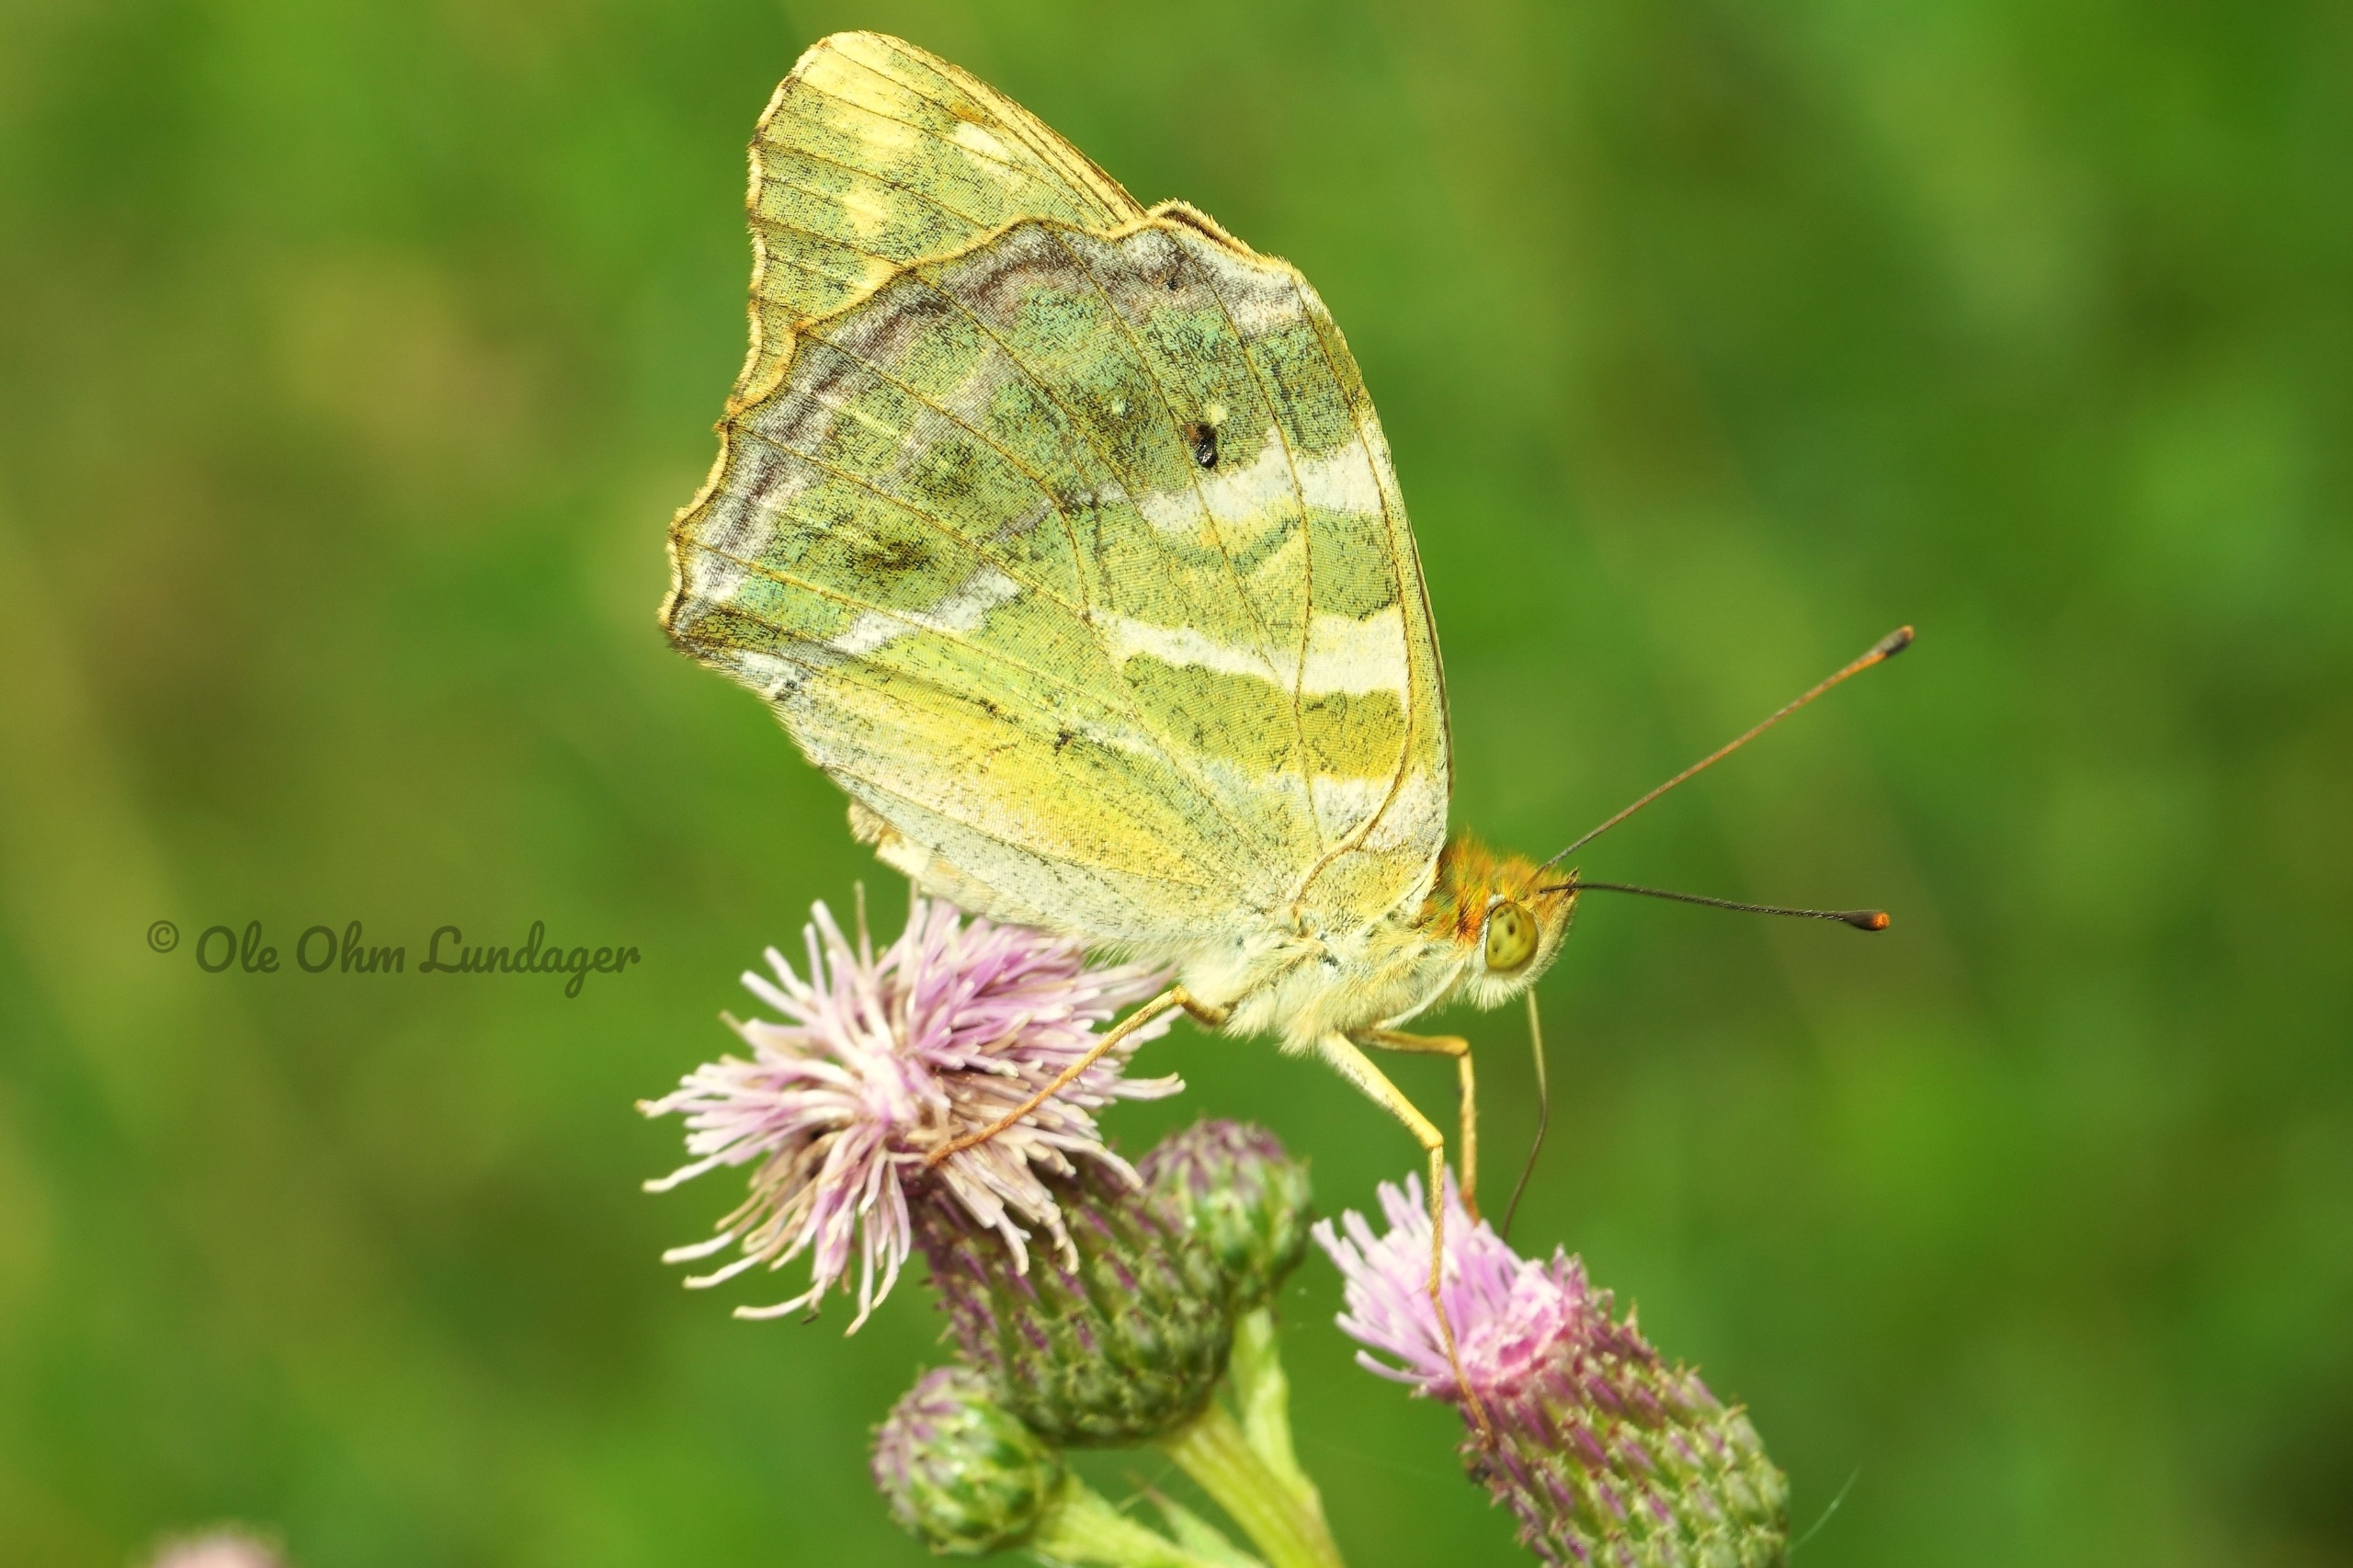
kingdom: Animalia
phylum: Arthropoda
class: Insecta
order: Lepidoptera
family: Nymphalidae
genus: Argynnis
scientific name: Argynnis paphia
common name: Kejserkåbe
